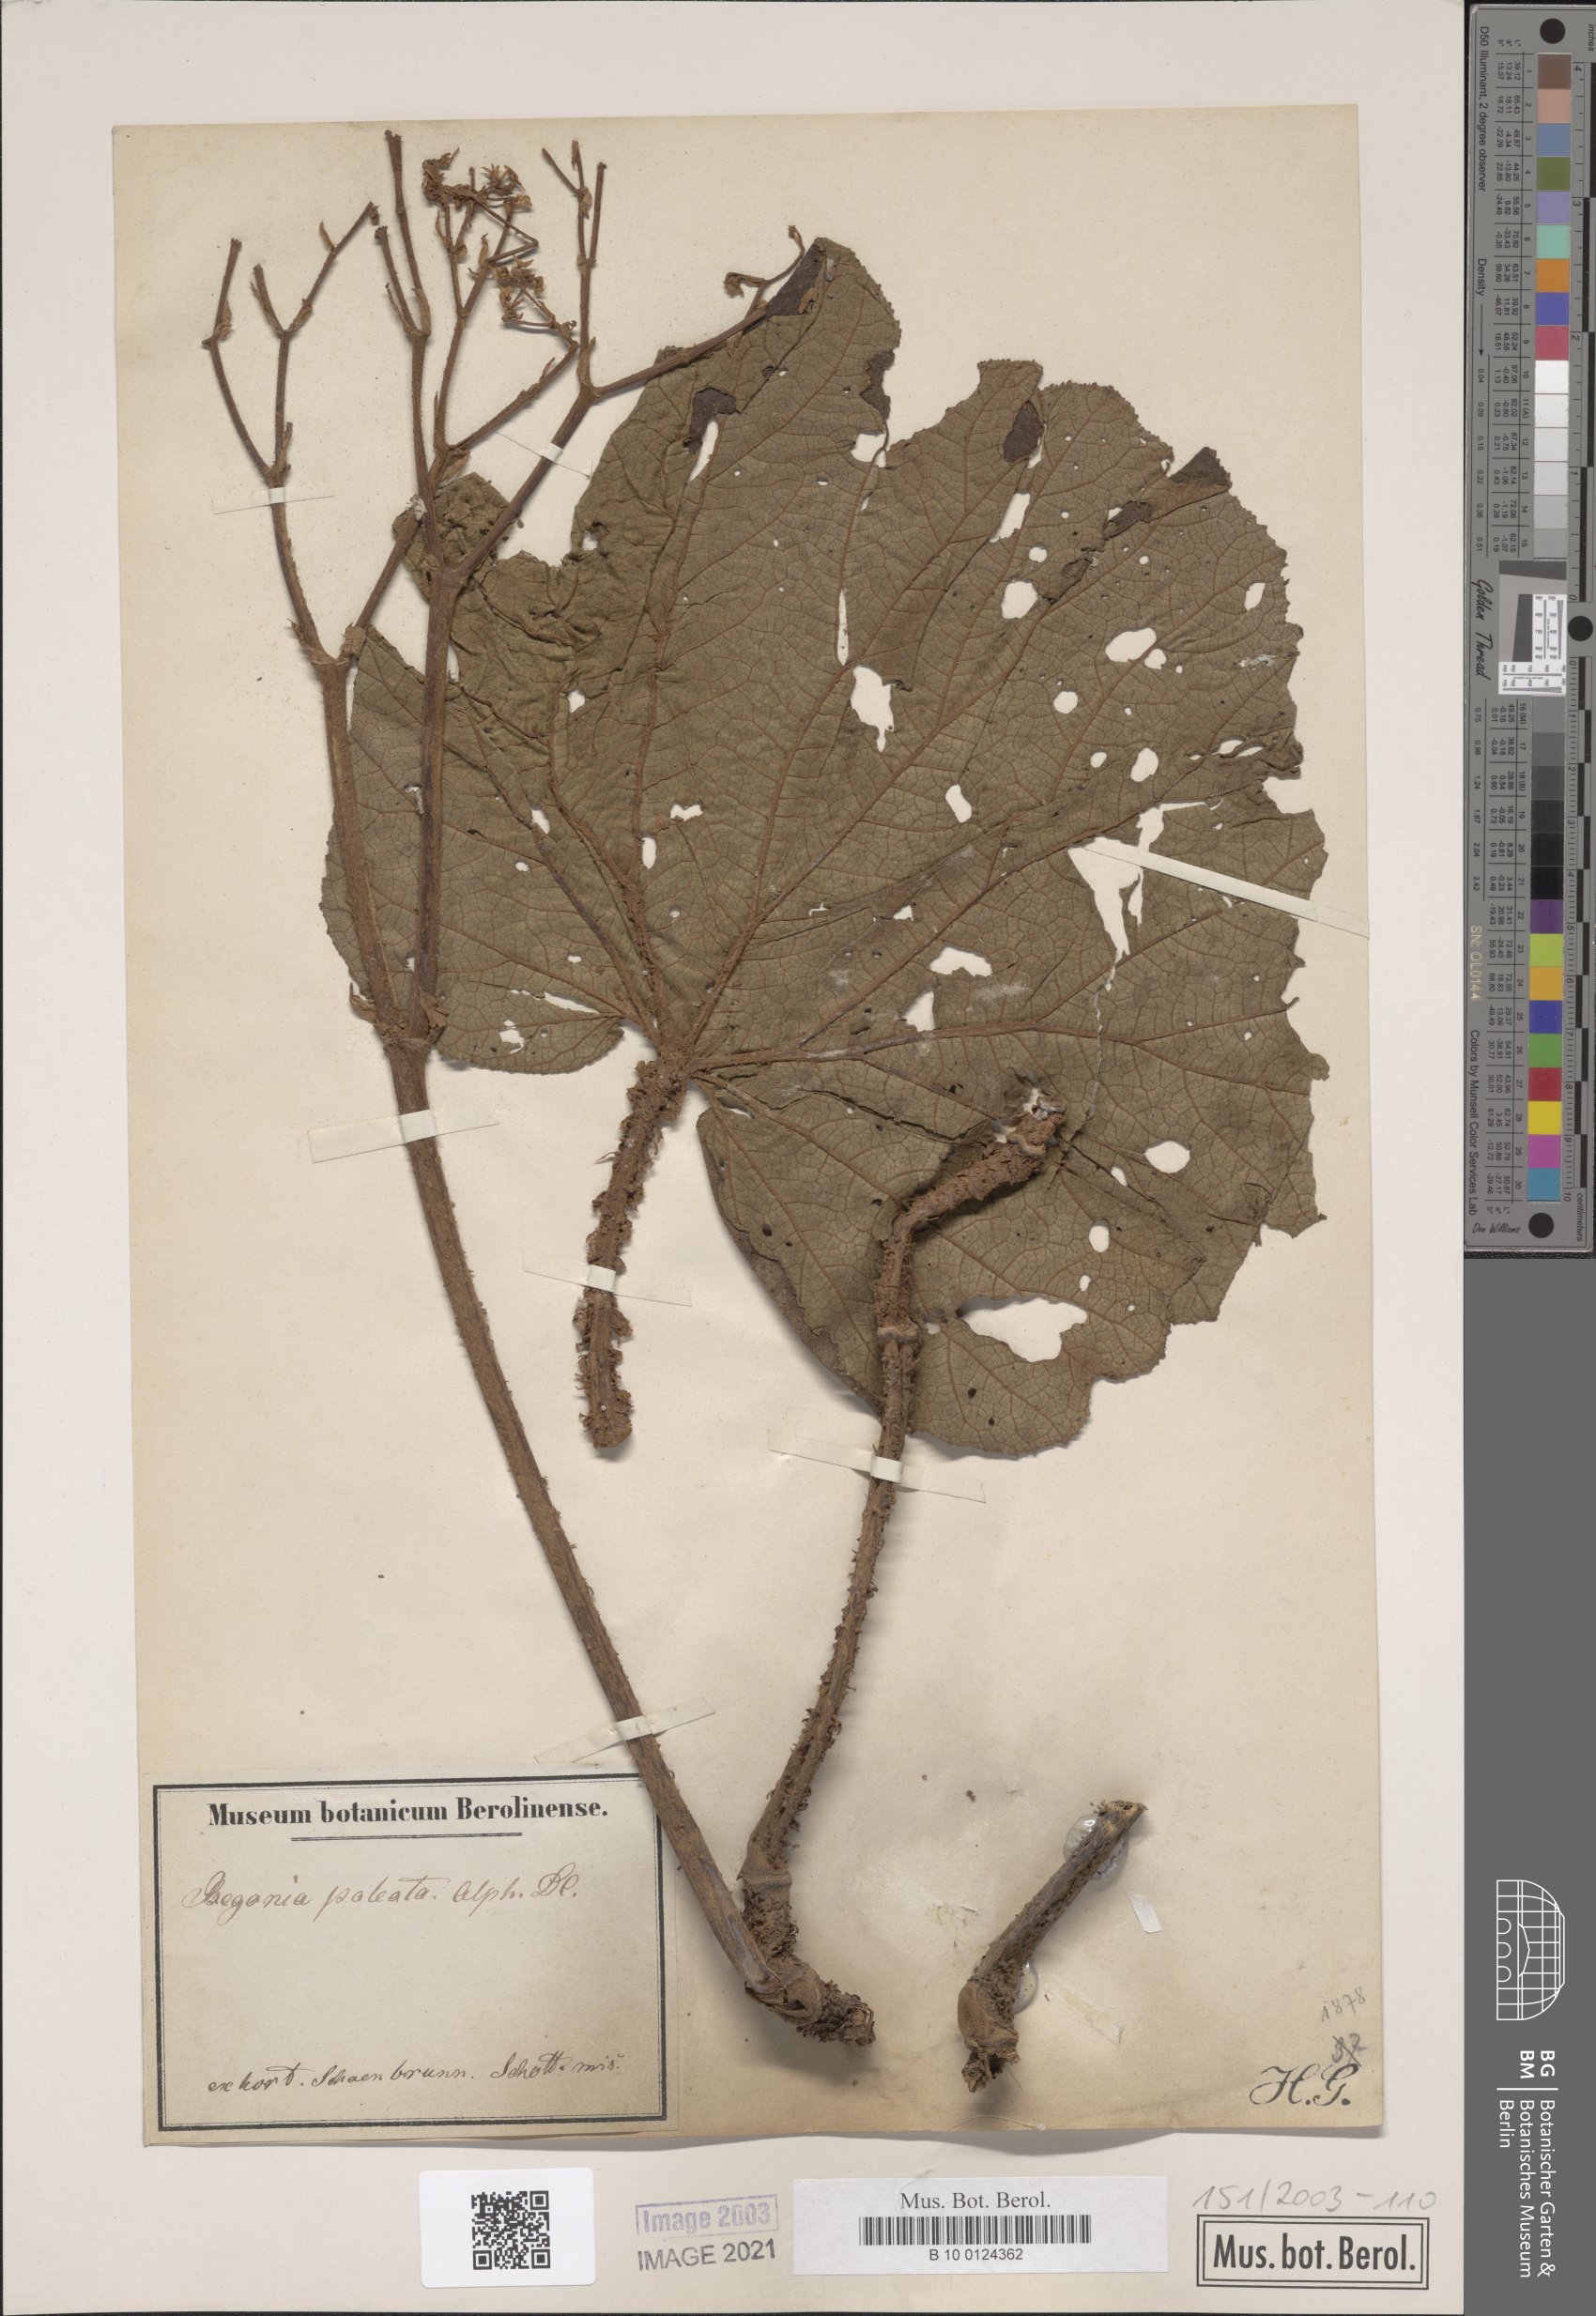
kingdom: Plantae
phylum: Tracheophyta
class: Magnoliopsida
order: Cucurbitales
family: Begoniaceae
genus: Begonia
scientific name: Begonia paleata
